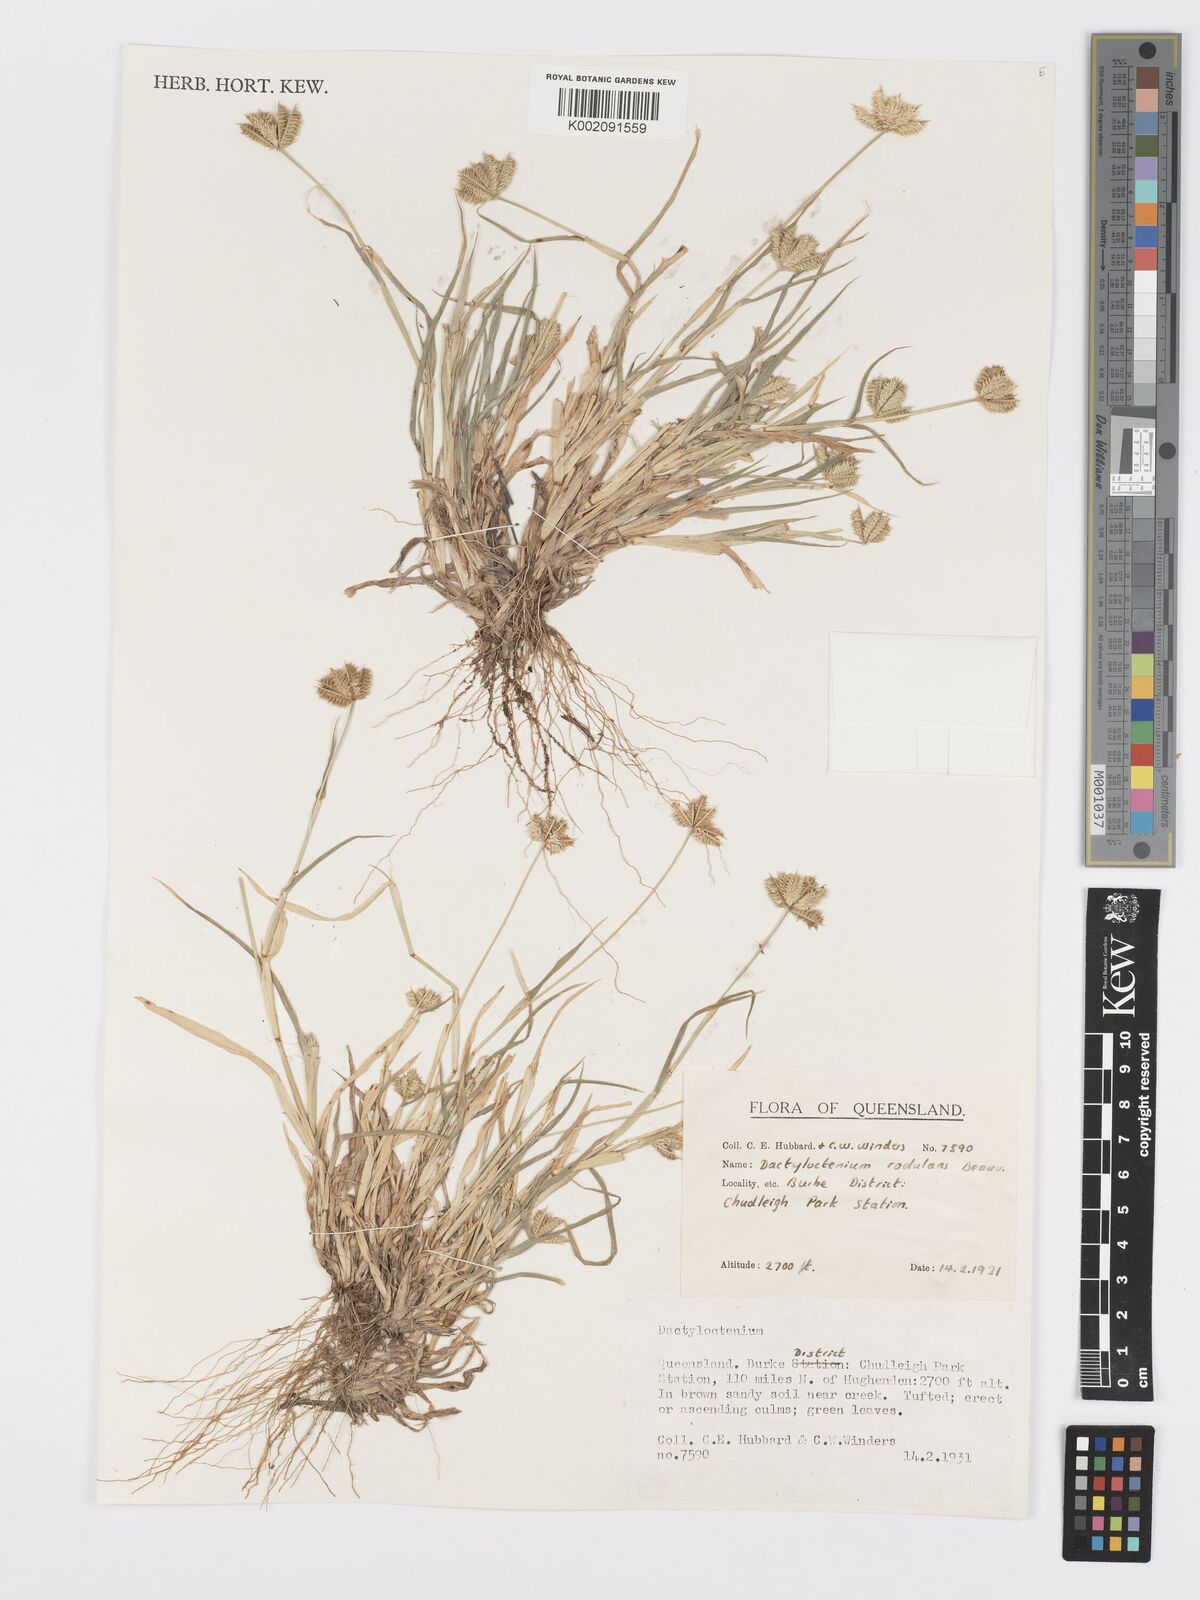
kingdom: Plantae
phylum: Tracheophyta
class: Liliopsida
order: Poales
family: Poaceae
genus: Dactyloctenium
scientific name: Dactyloctenium radulans
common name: Button-grass
